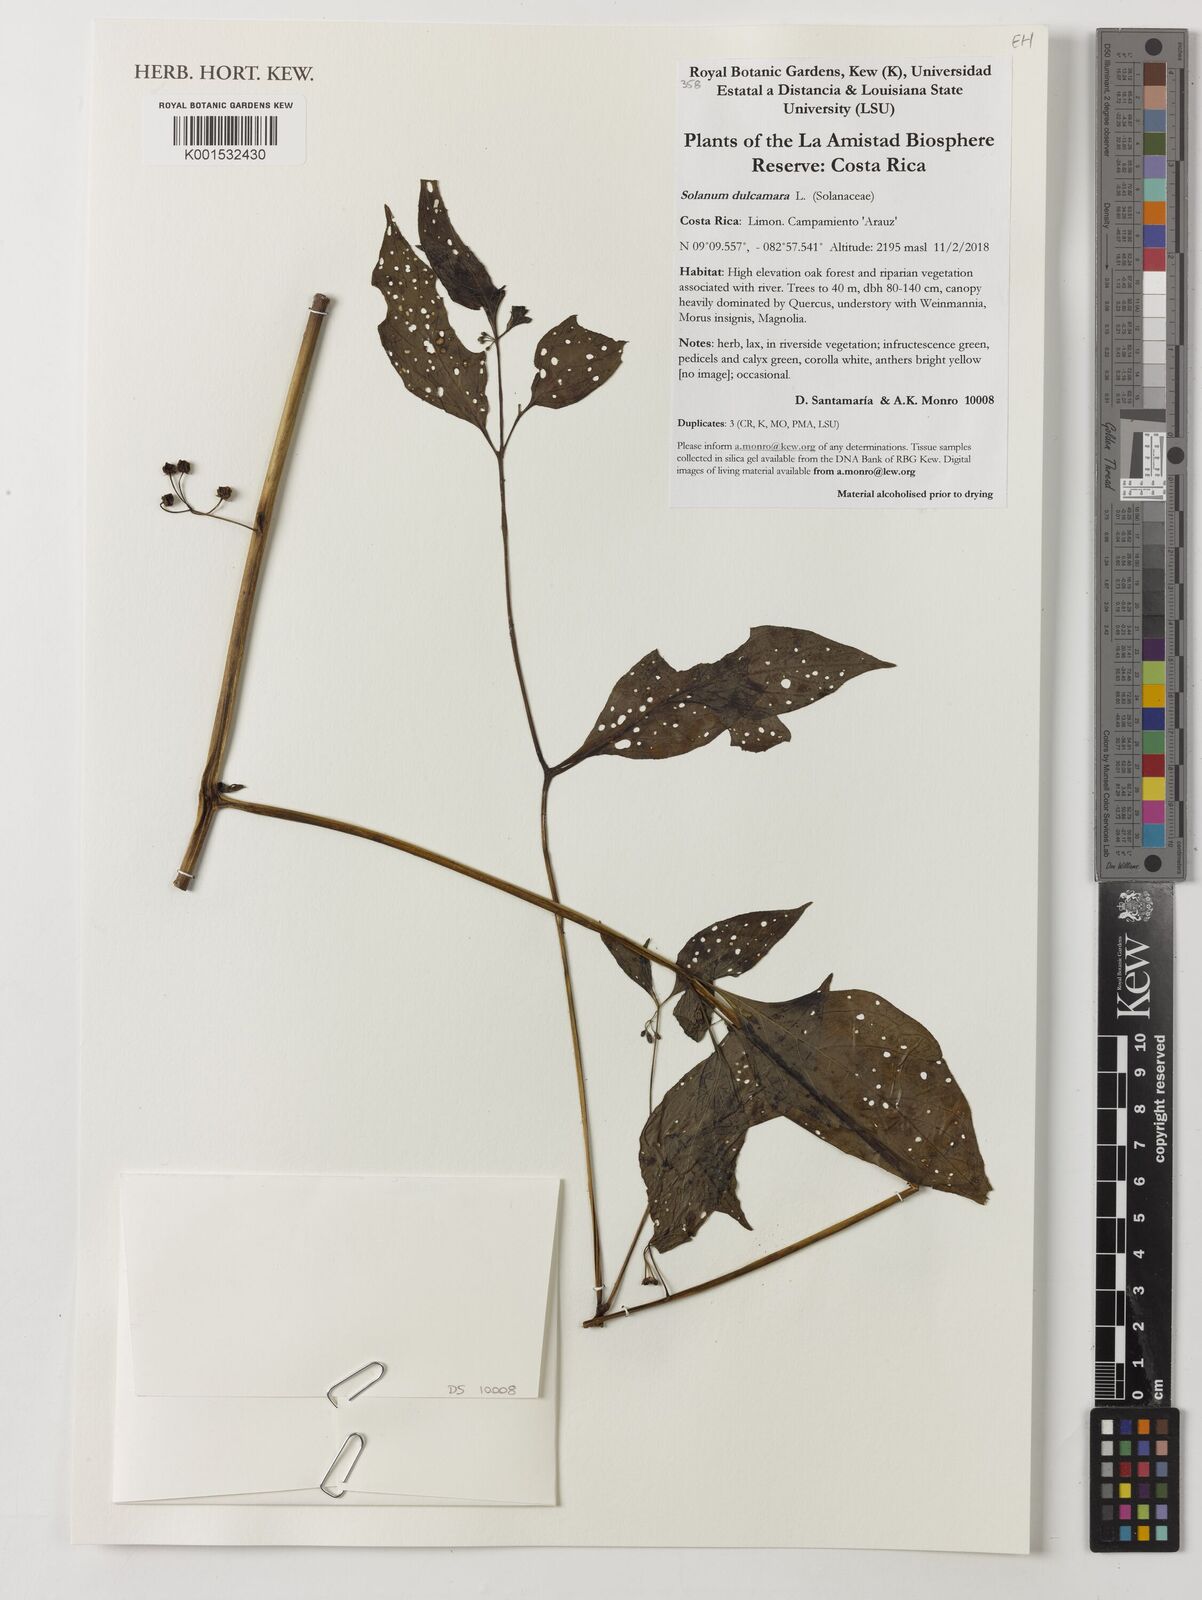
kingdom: Plantae
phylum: Tracheophyta
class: Magnoliopsida
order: Solanales
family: Solanaceae
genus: Solanum
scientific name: Solanum dulcamara
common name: Climbing nightshade
